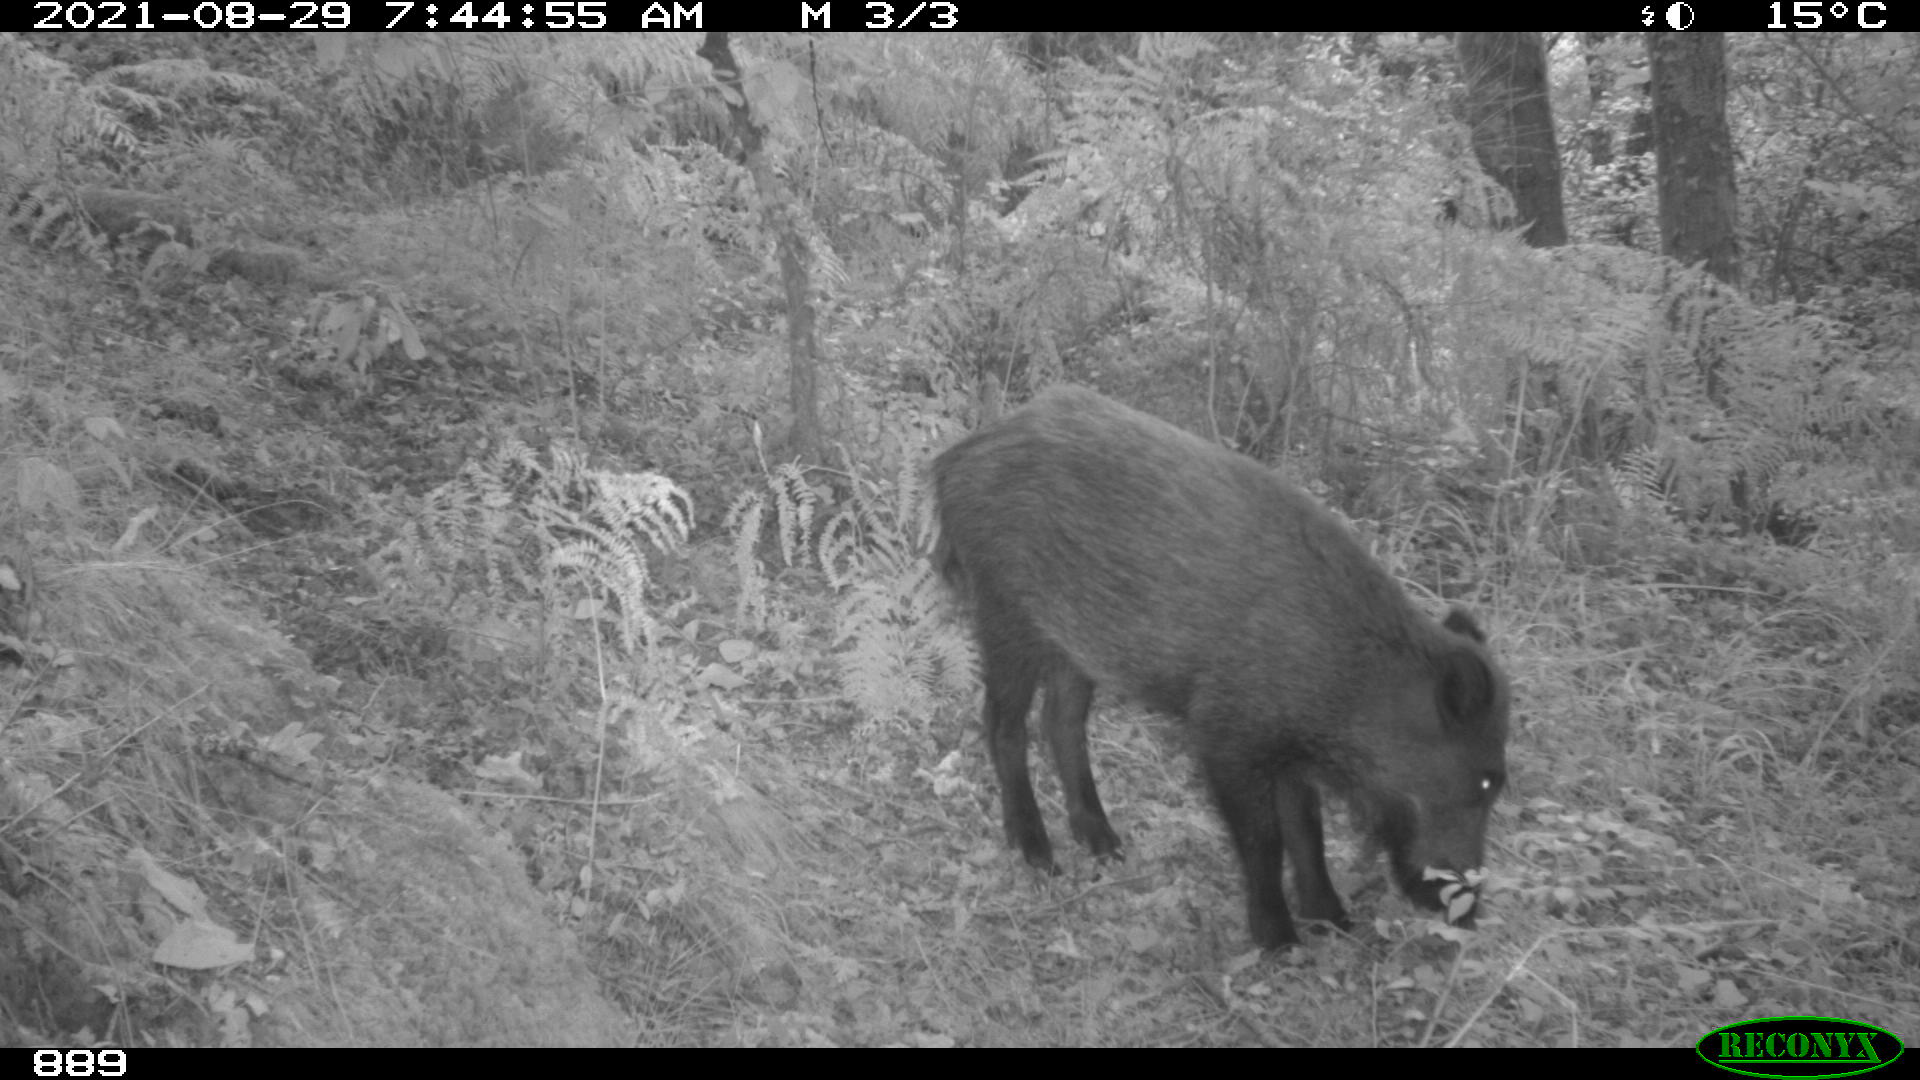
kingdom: Animalia
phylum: Chordata
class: Mammalia
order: Artiodactyla
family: Suidae
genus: Sus
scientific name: Sus scrofa
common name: Wild boar
